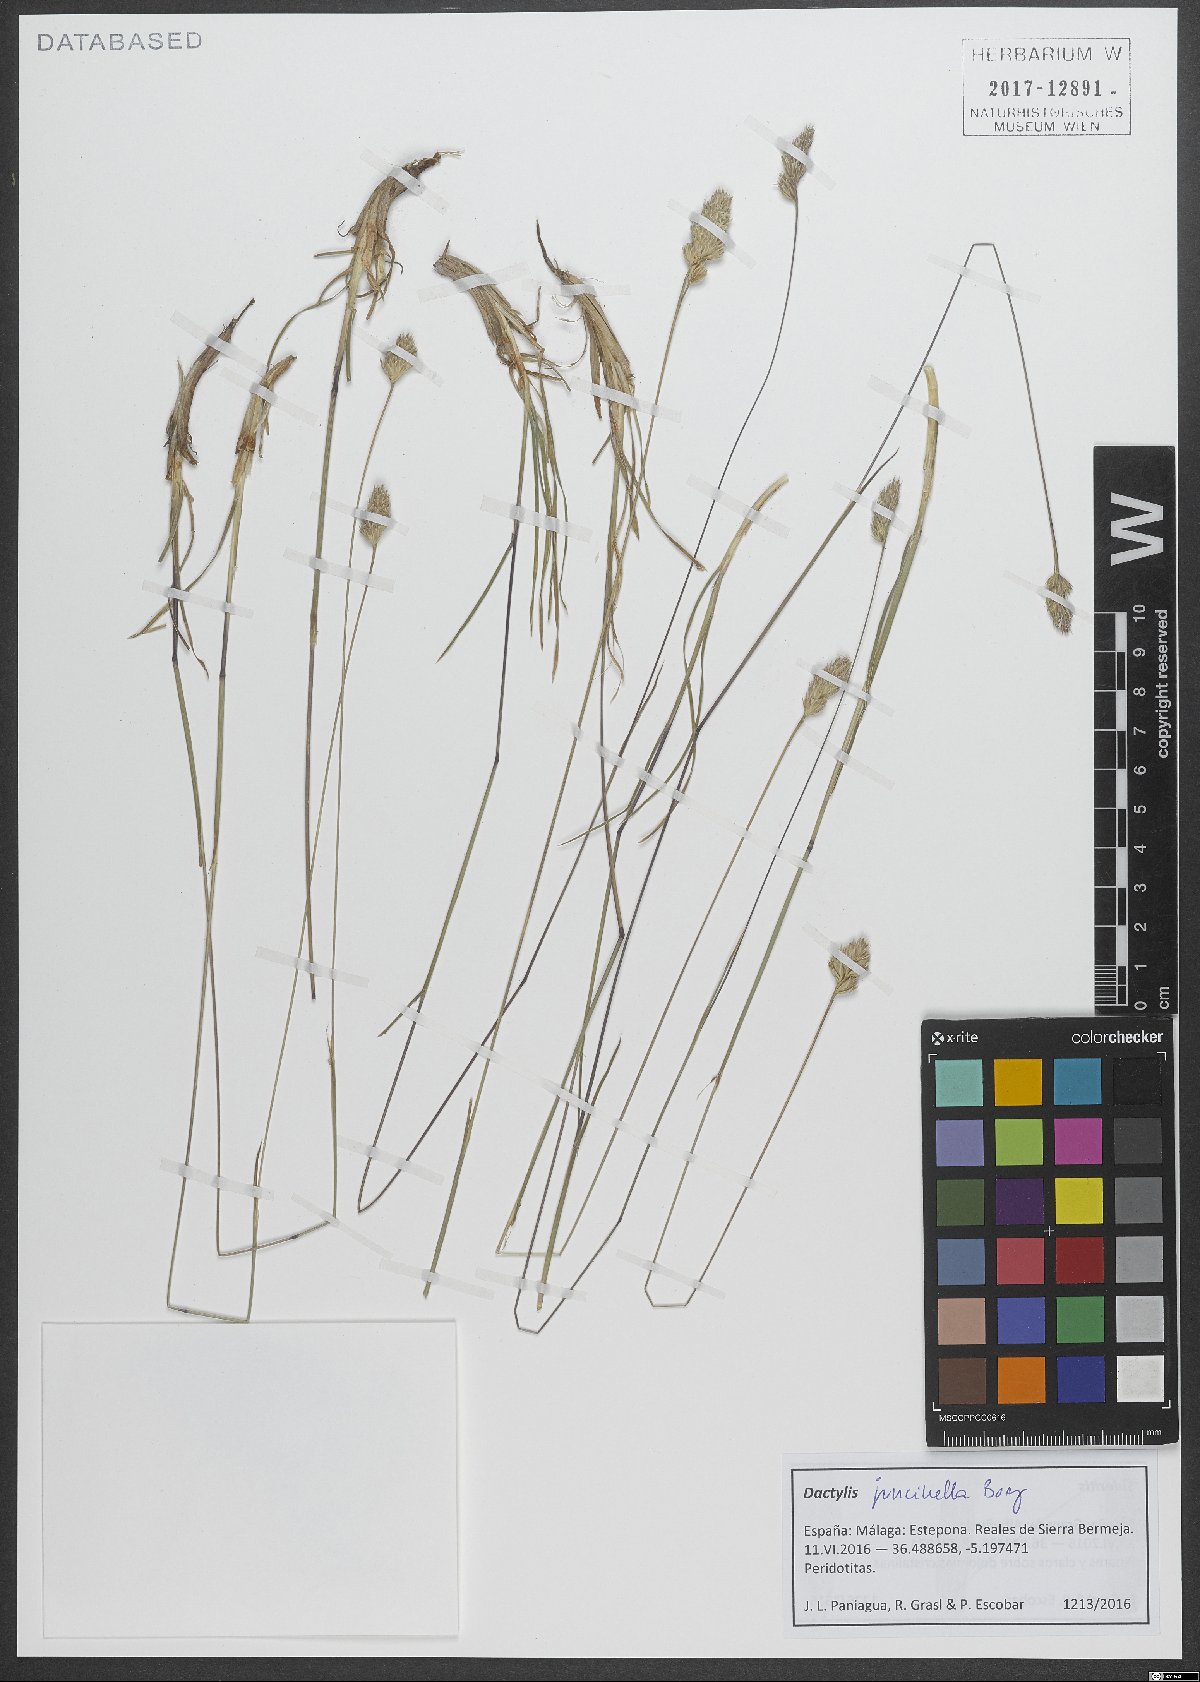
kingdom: Plantae
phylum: Tracheophyta
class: Liliopsida
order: Poales
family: Poaceae
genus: Dactylis
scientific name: Dactylis glomerata
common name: Orchardgrass
